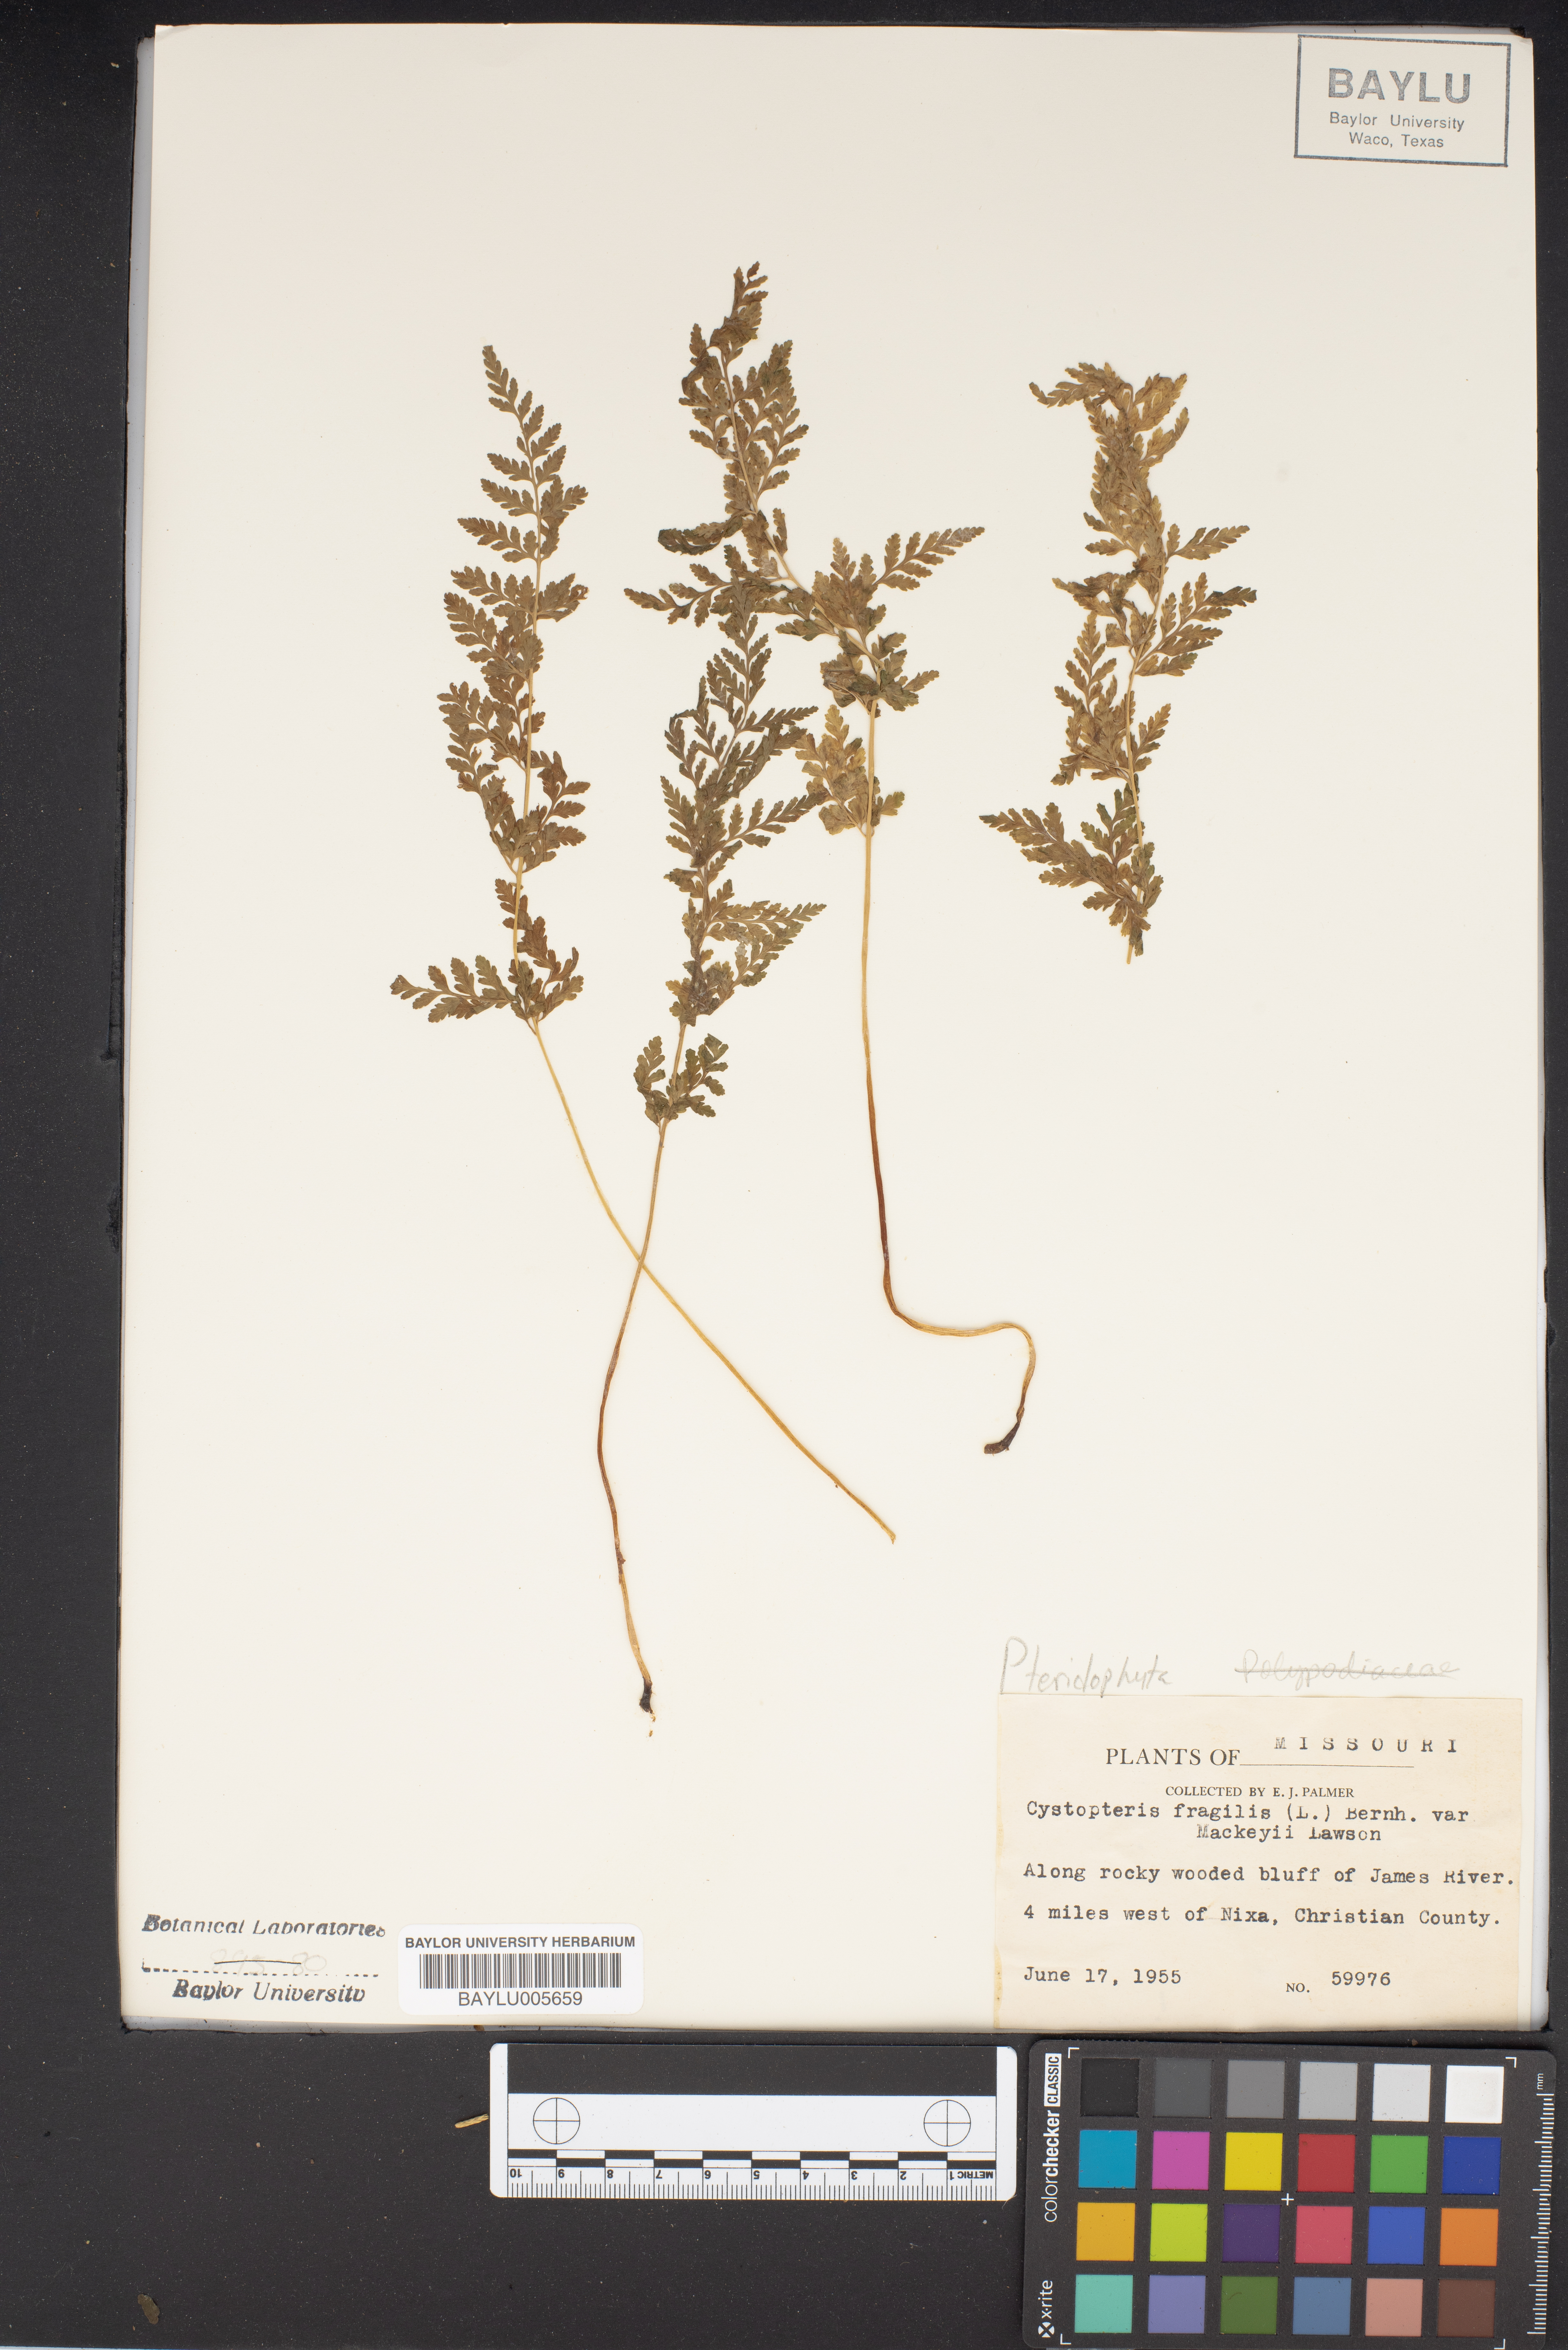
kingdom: Plantae
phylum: Tracheophyta
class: Polypodiopsida
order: Polypodiales
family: Cystopteridaceae
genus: Cystopteris
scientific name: Cystopteris tenuis
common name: Mackay's brittle fern
